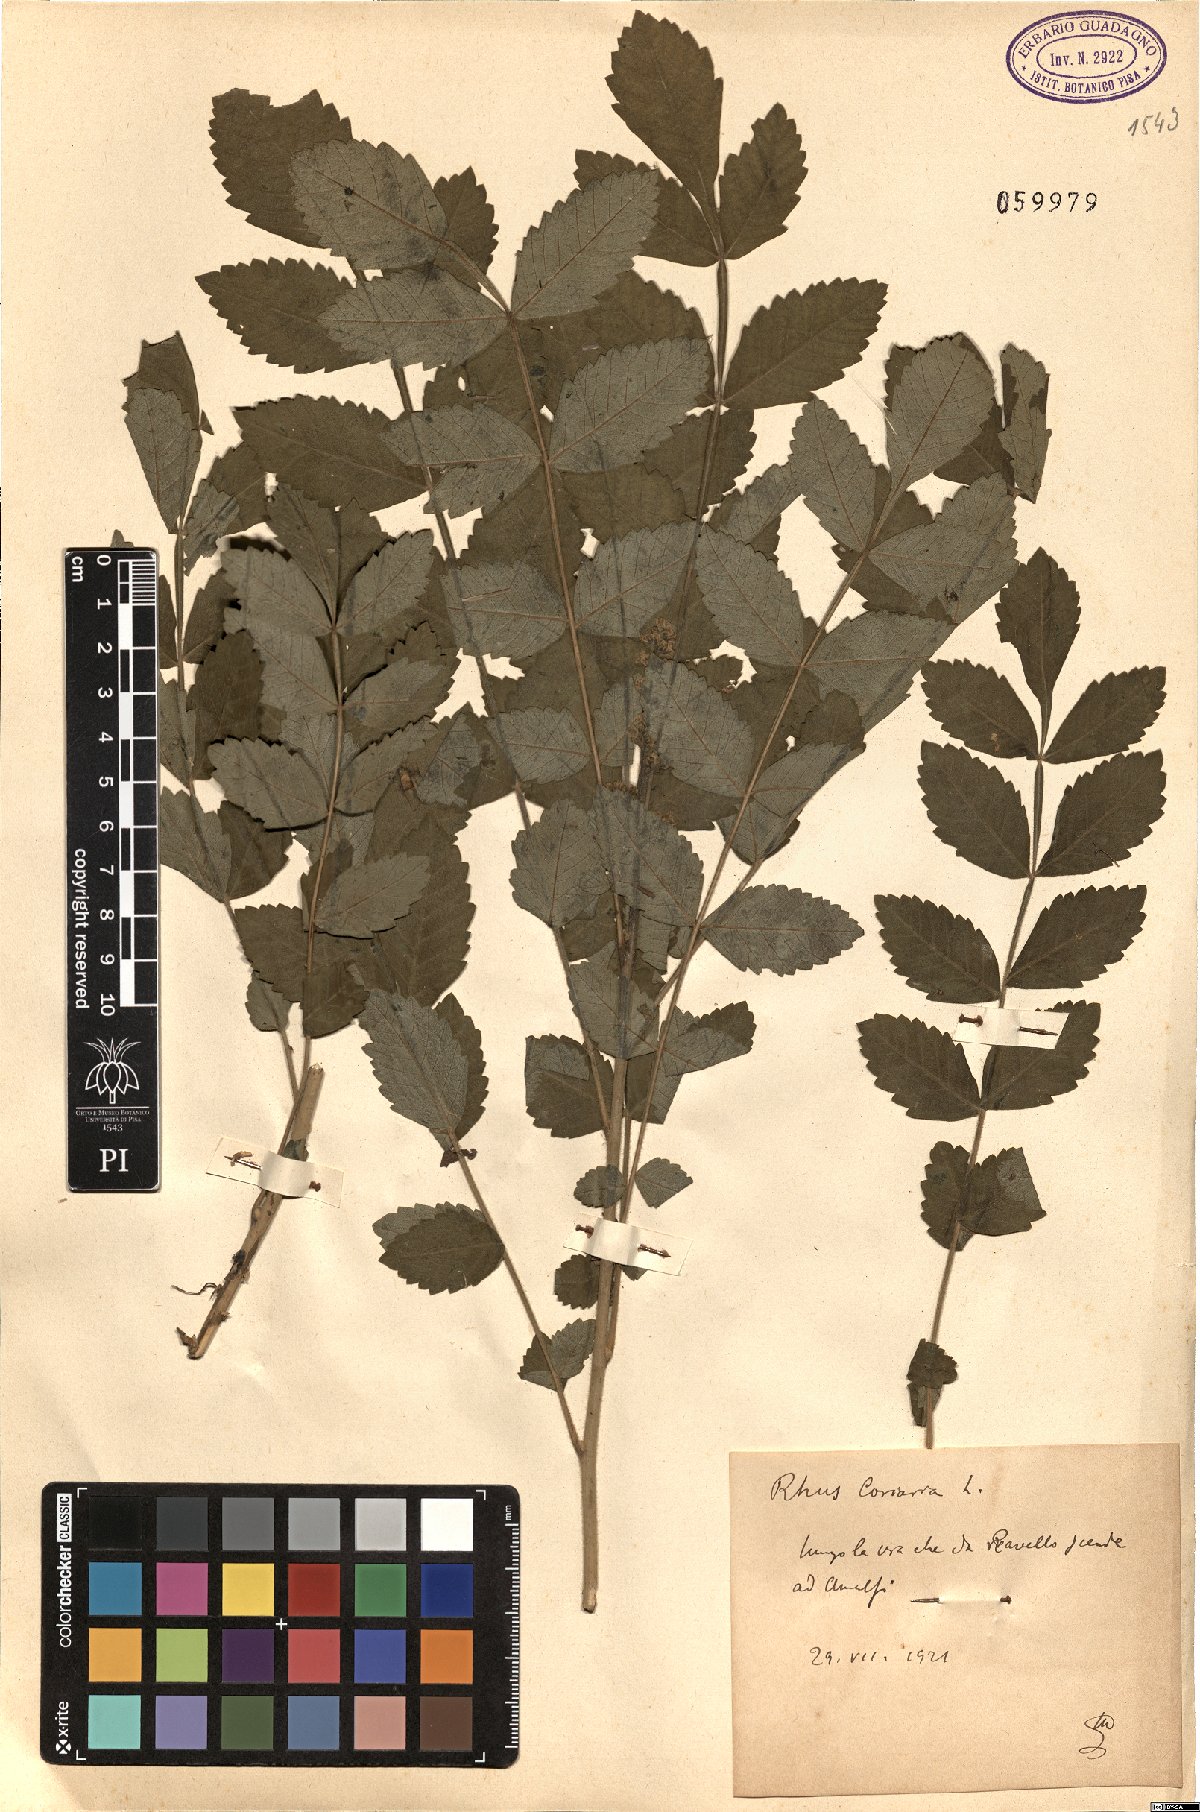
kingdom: Plantae
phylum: Tracheophyta
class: Magnoliopsida
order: Sapindales
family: Anacardiaceae
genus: Rhus
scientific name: Rhus coriaria
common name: Tanner's sumach
